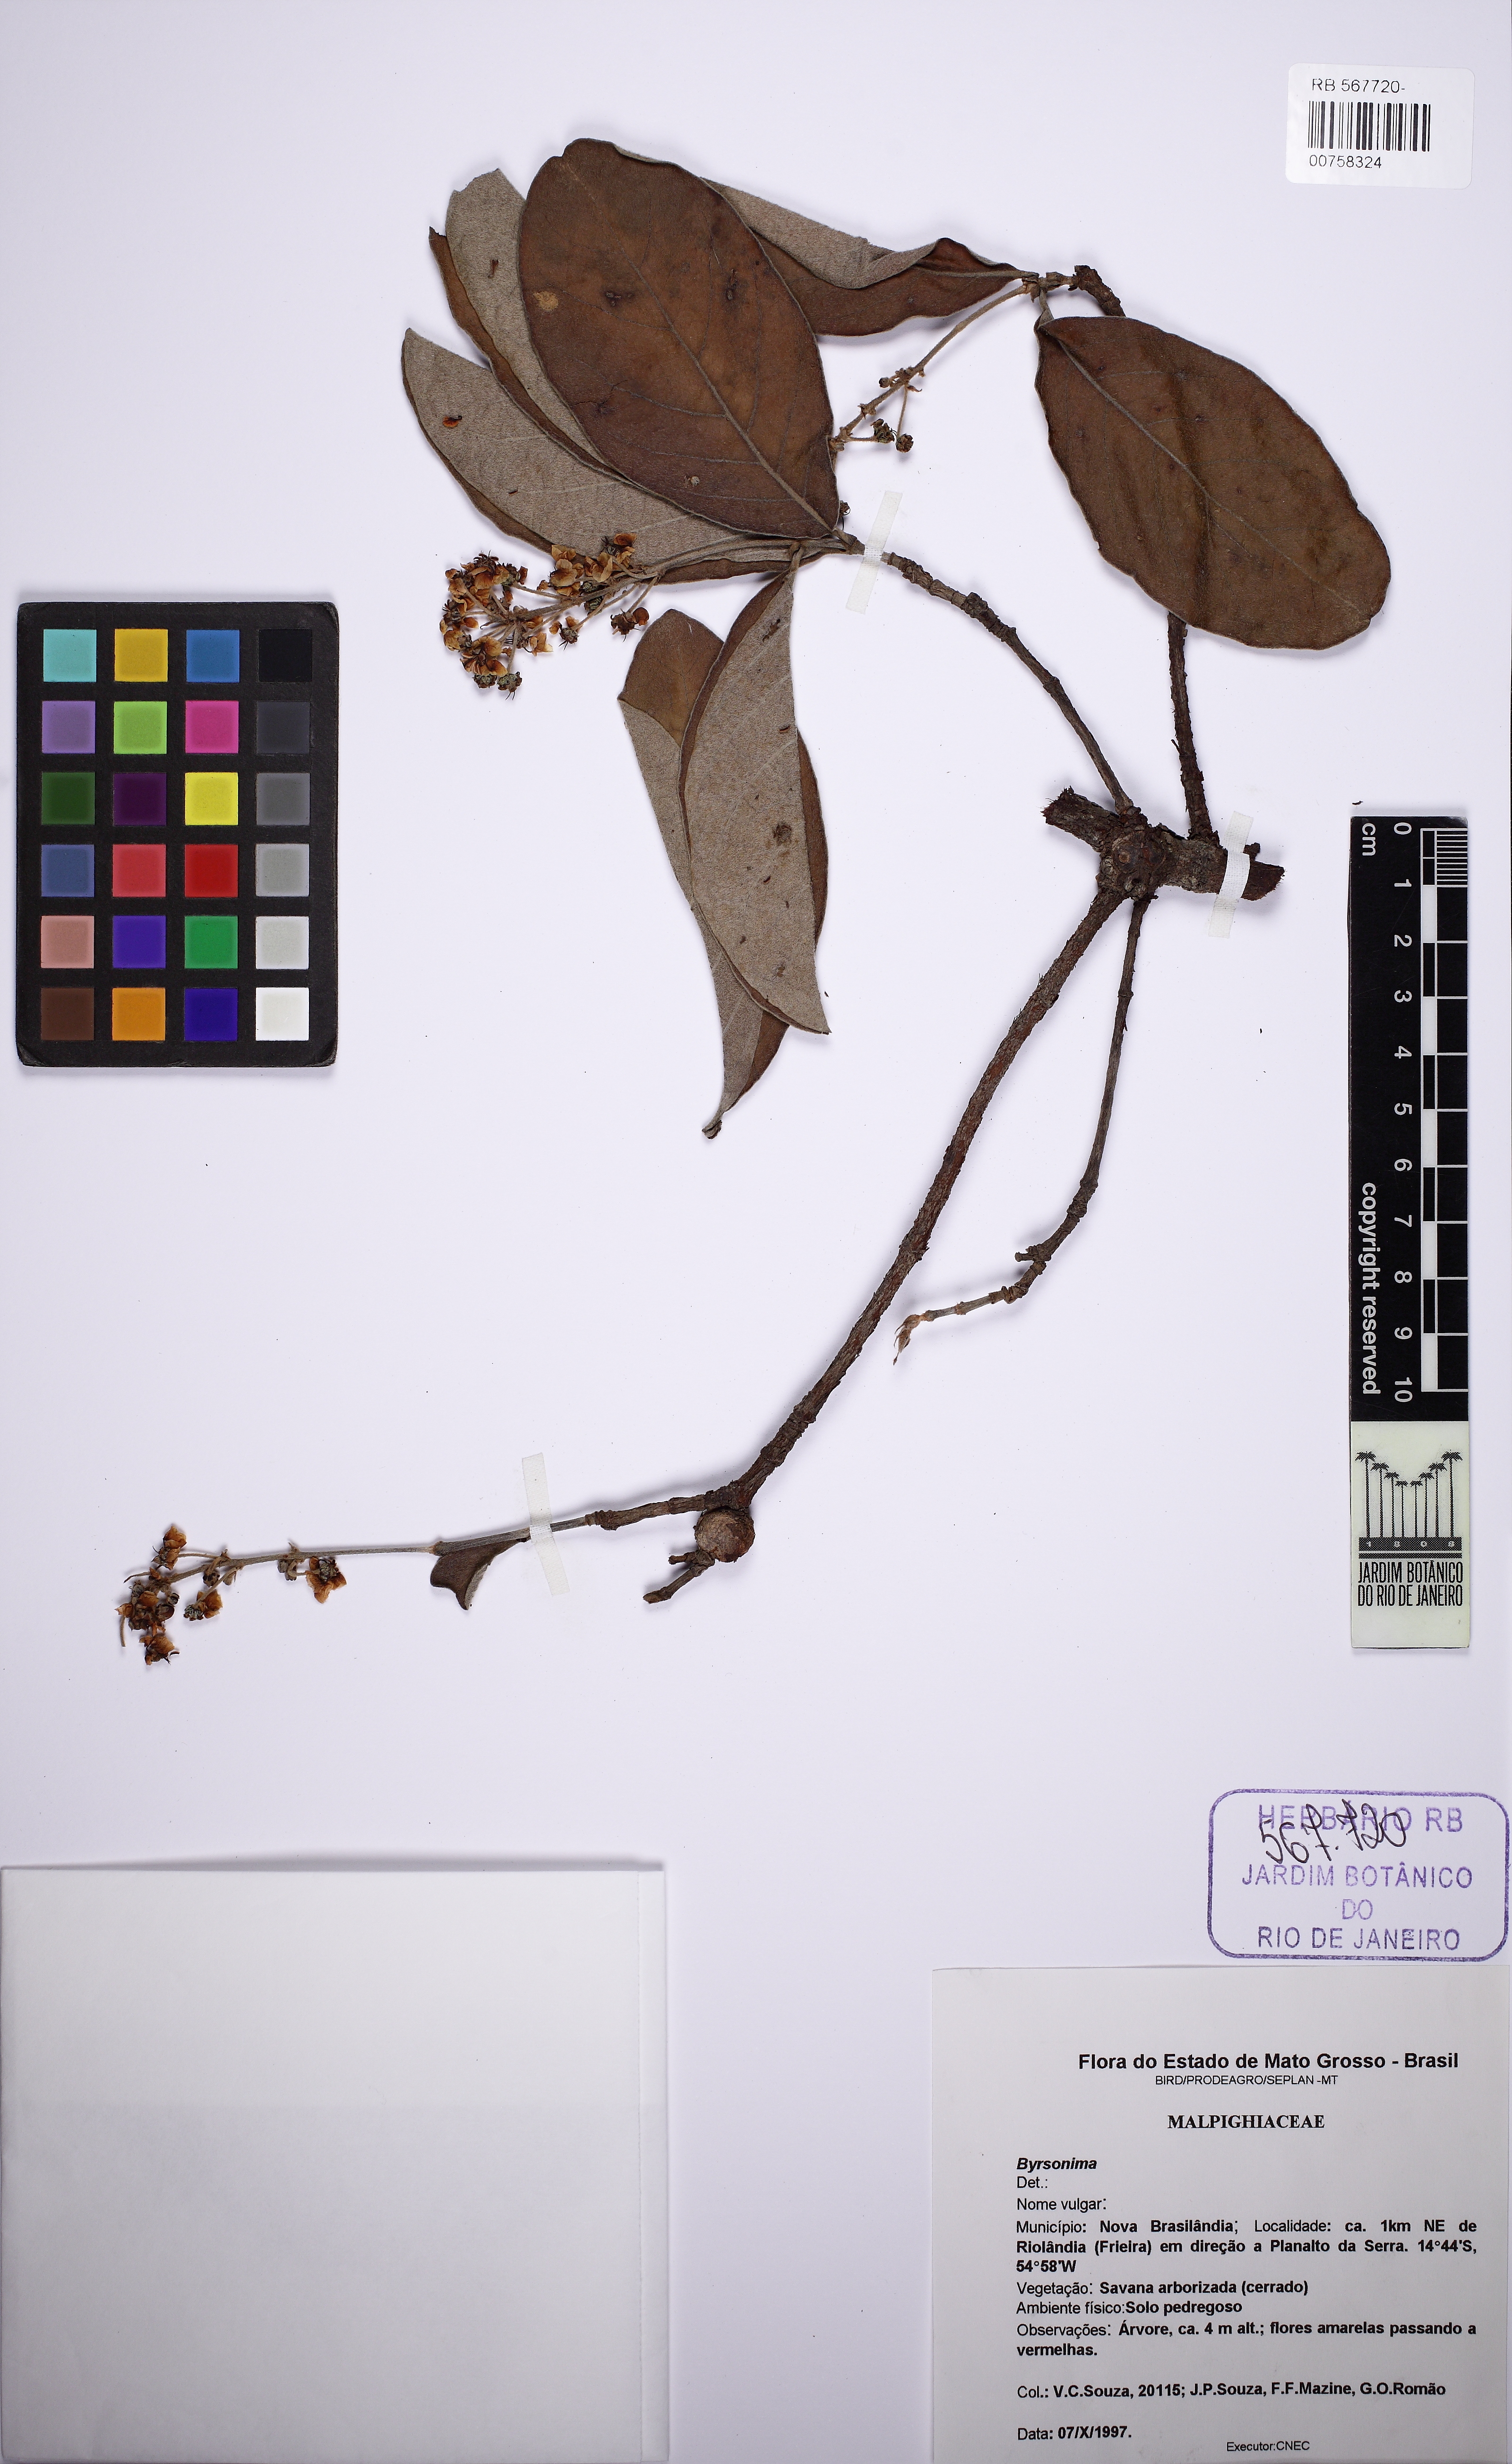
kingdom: Plantae
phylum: Tracheophyta
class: Magnoliopsida
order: Malpighiales
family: Malpighiaceae
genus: Byrsonima
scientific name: Byrsonima crassifolia
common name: Golden spoon
